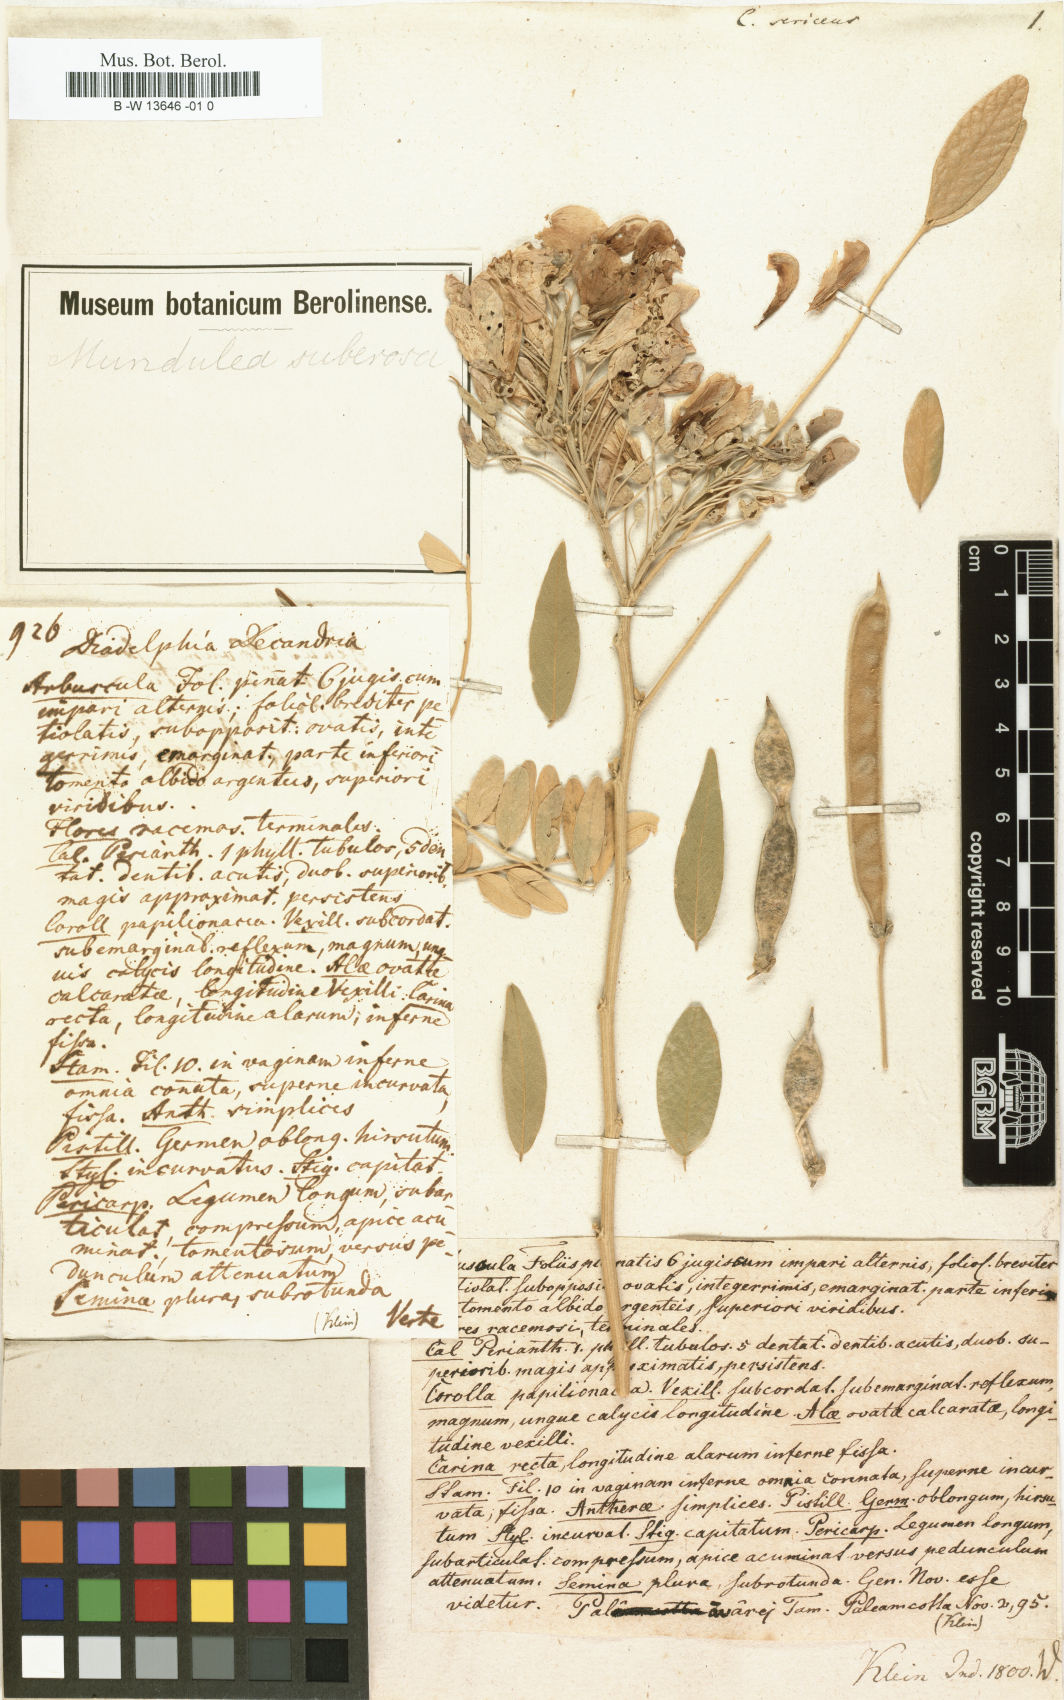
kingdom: Plantae
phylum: Tracheophyta
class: Magnoliopsida
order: Fabales
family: Fabaceae
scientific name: Fabaceae
